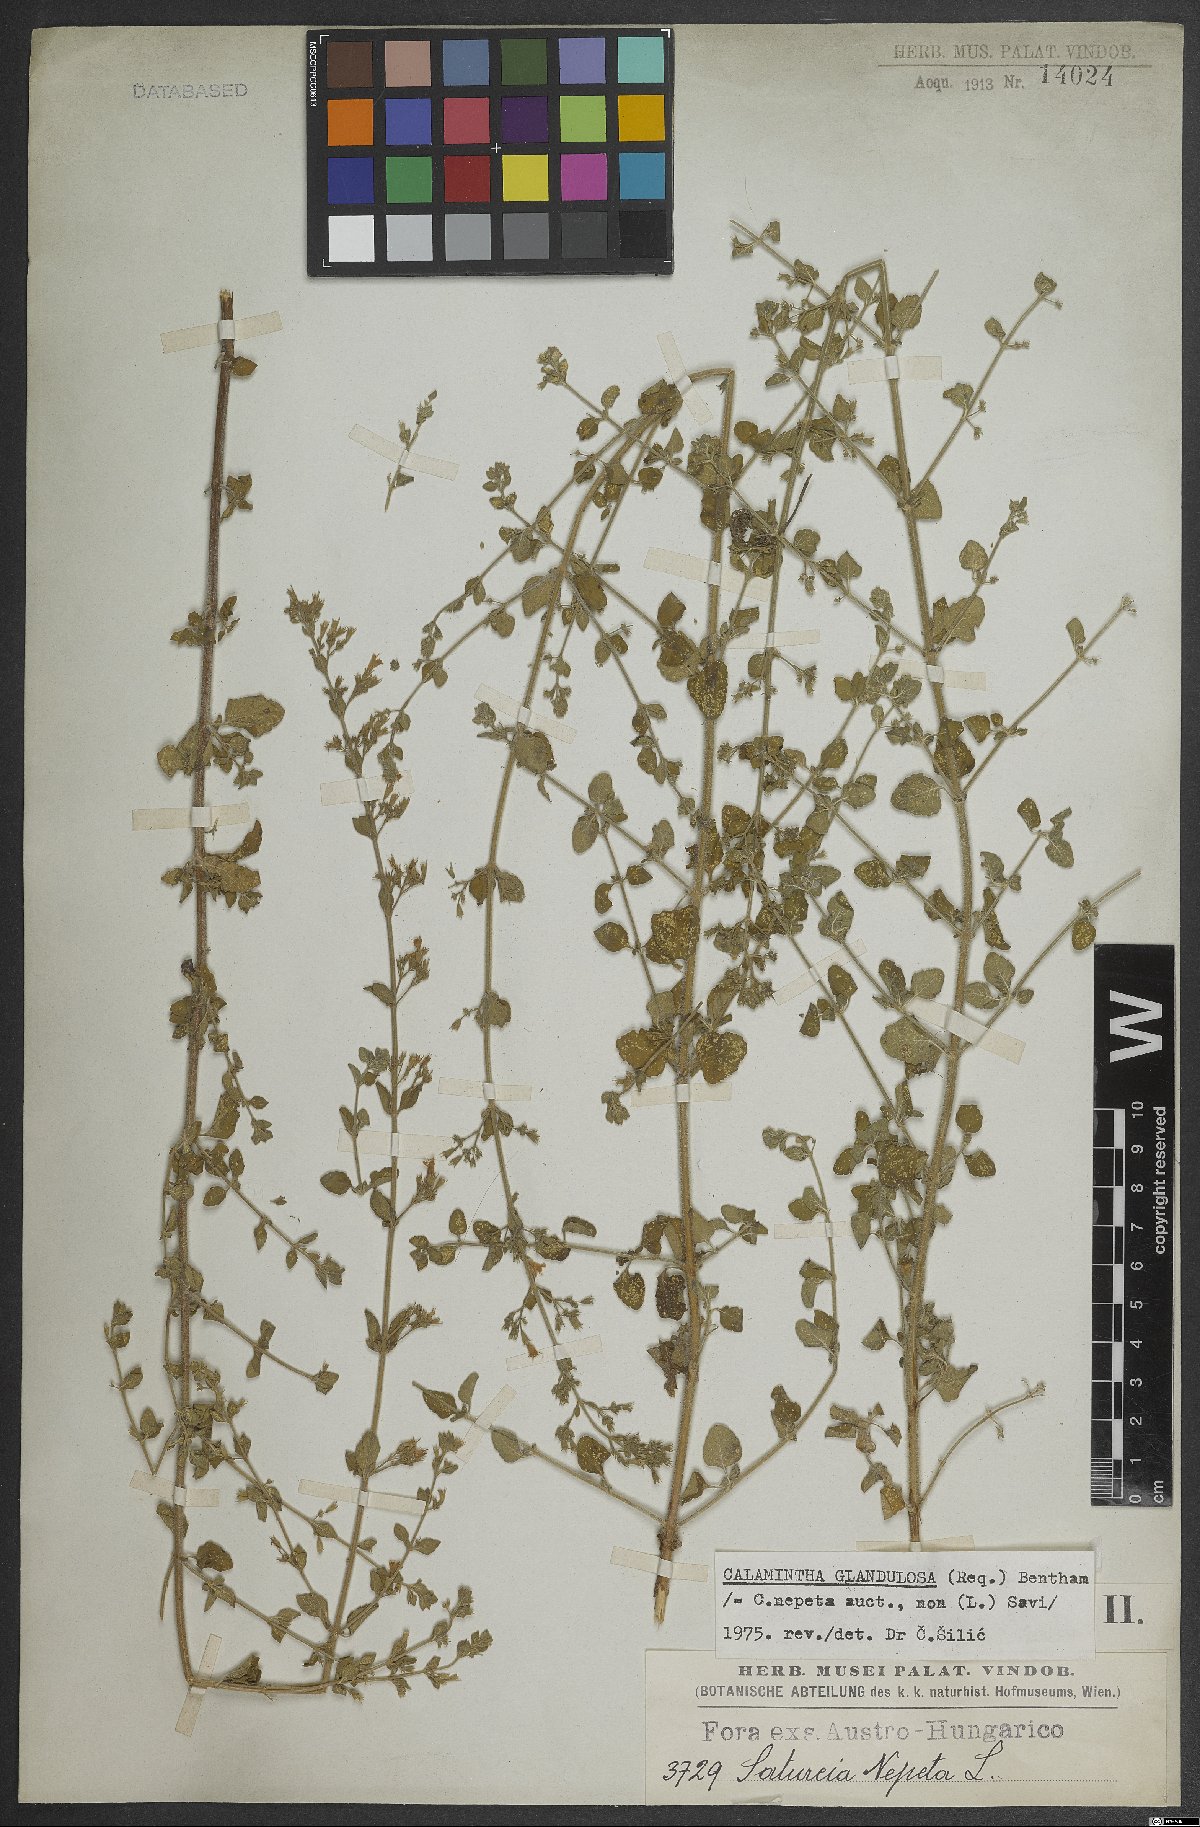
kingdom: Plantae
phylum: Tracheophyta
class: Magnoliopsida
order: Lamiales
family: Lamiaceae
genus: Clinopodium
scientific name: Clinopodium nepeta
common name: Lesser calamint
